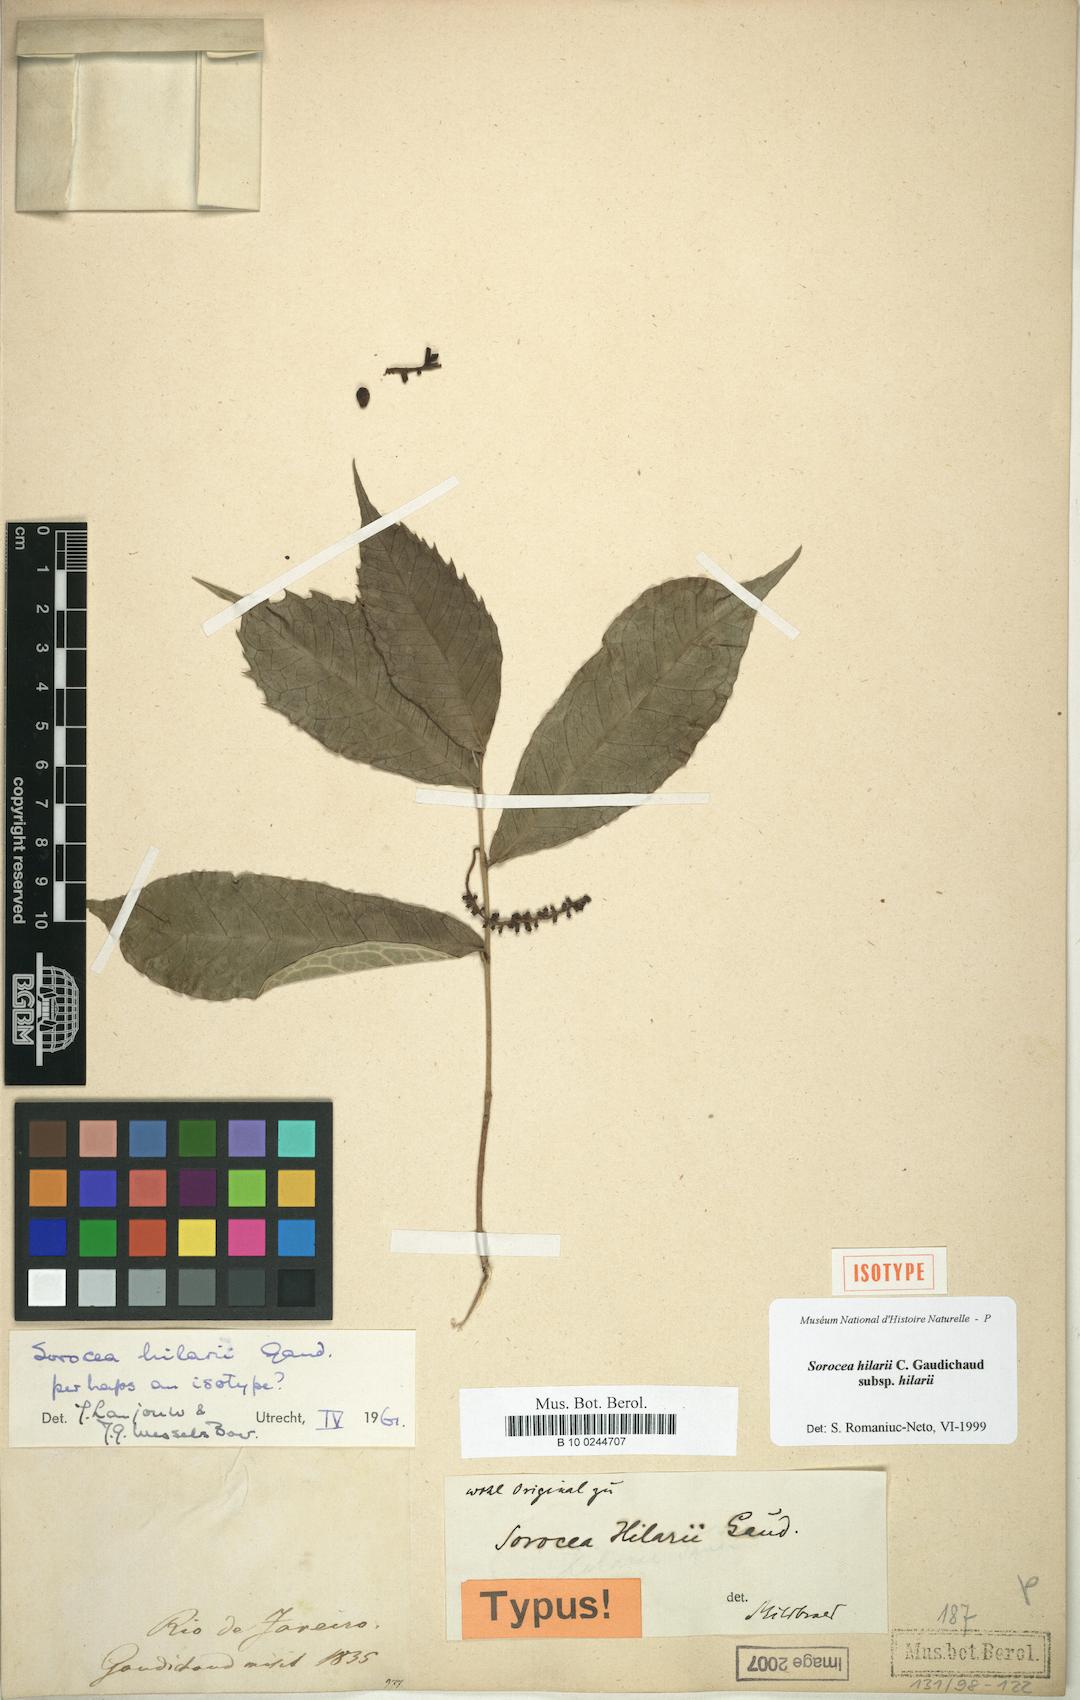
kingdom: Plantae
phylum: Tracheophyta
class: Magnoliopsida
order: Rosales
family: Moraceae
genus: Sorocea
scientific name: Sorocea hilarii
